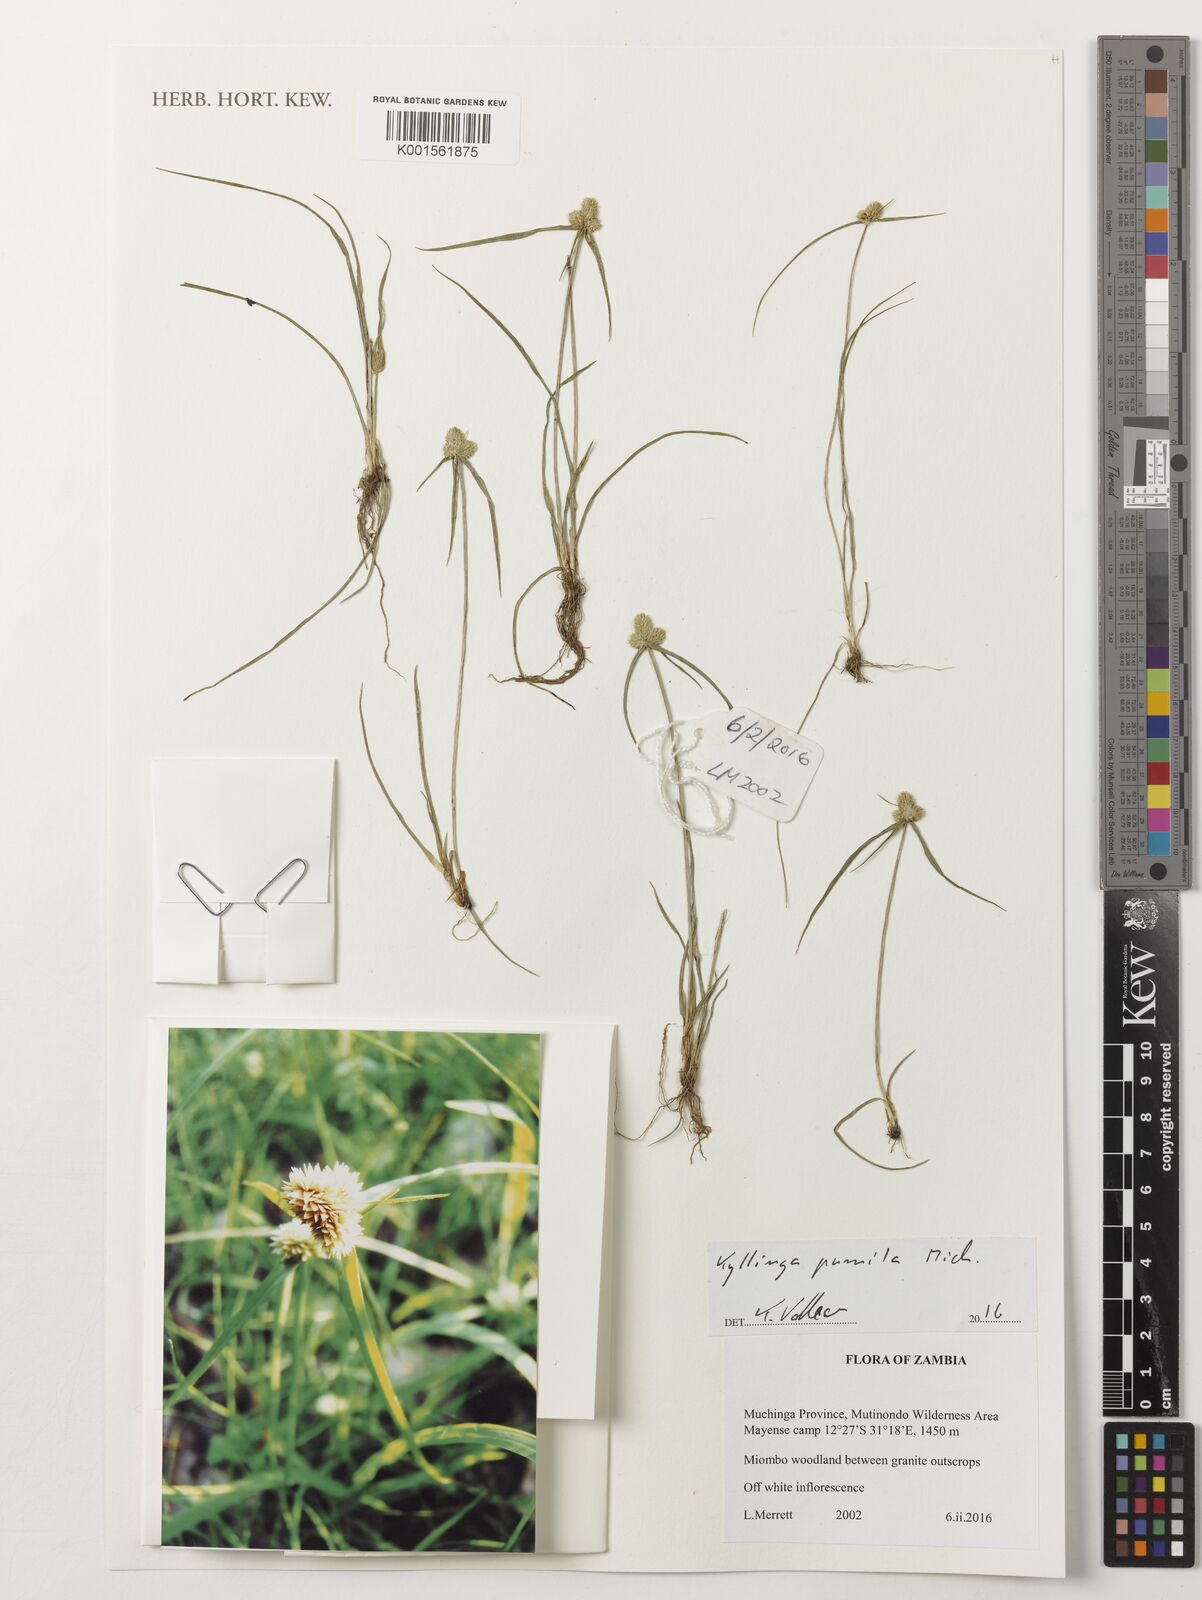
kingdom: Plantae
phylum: Tracheophyta
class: Liliopsida
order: Poales
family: Cyperaceae
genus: Cyperus
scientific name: Cyperus hortensis
